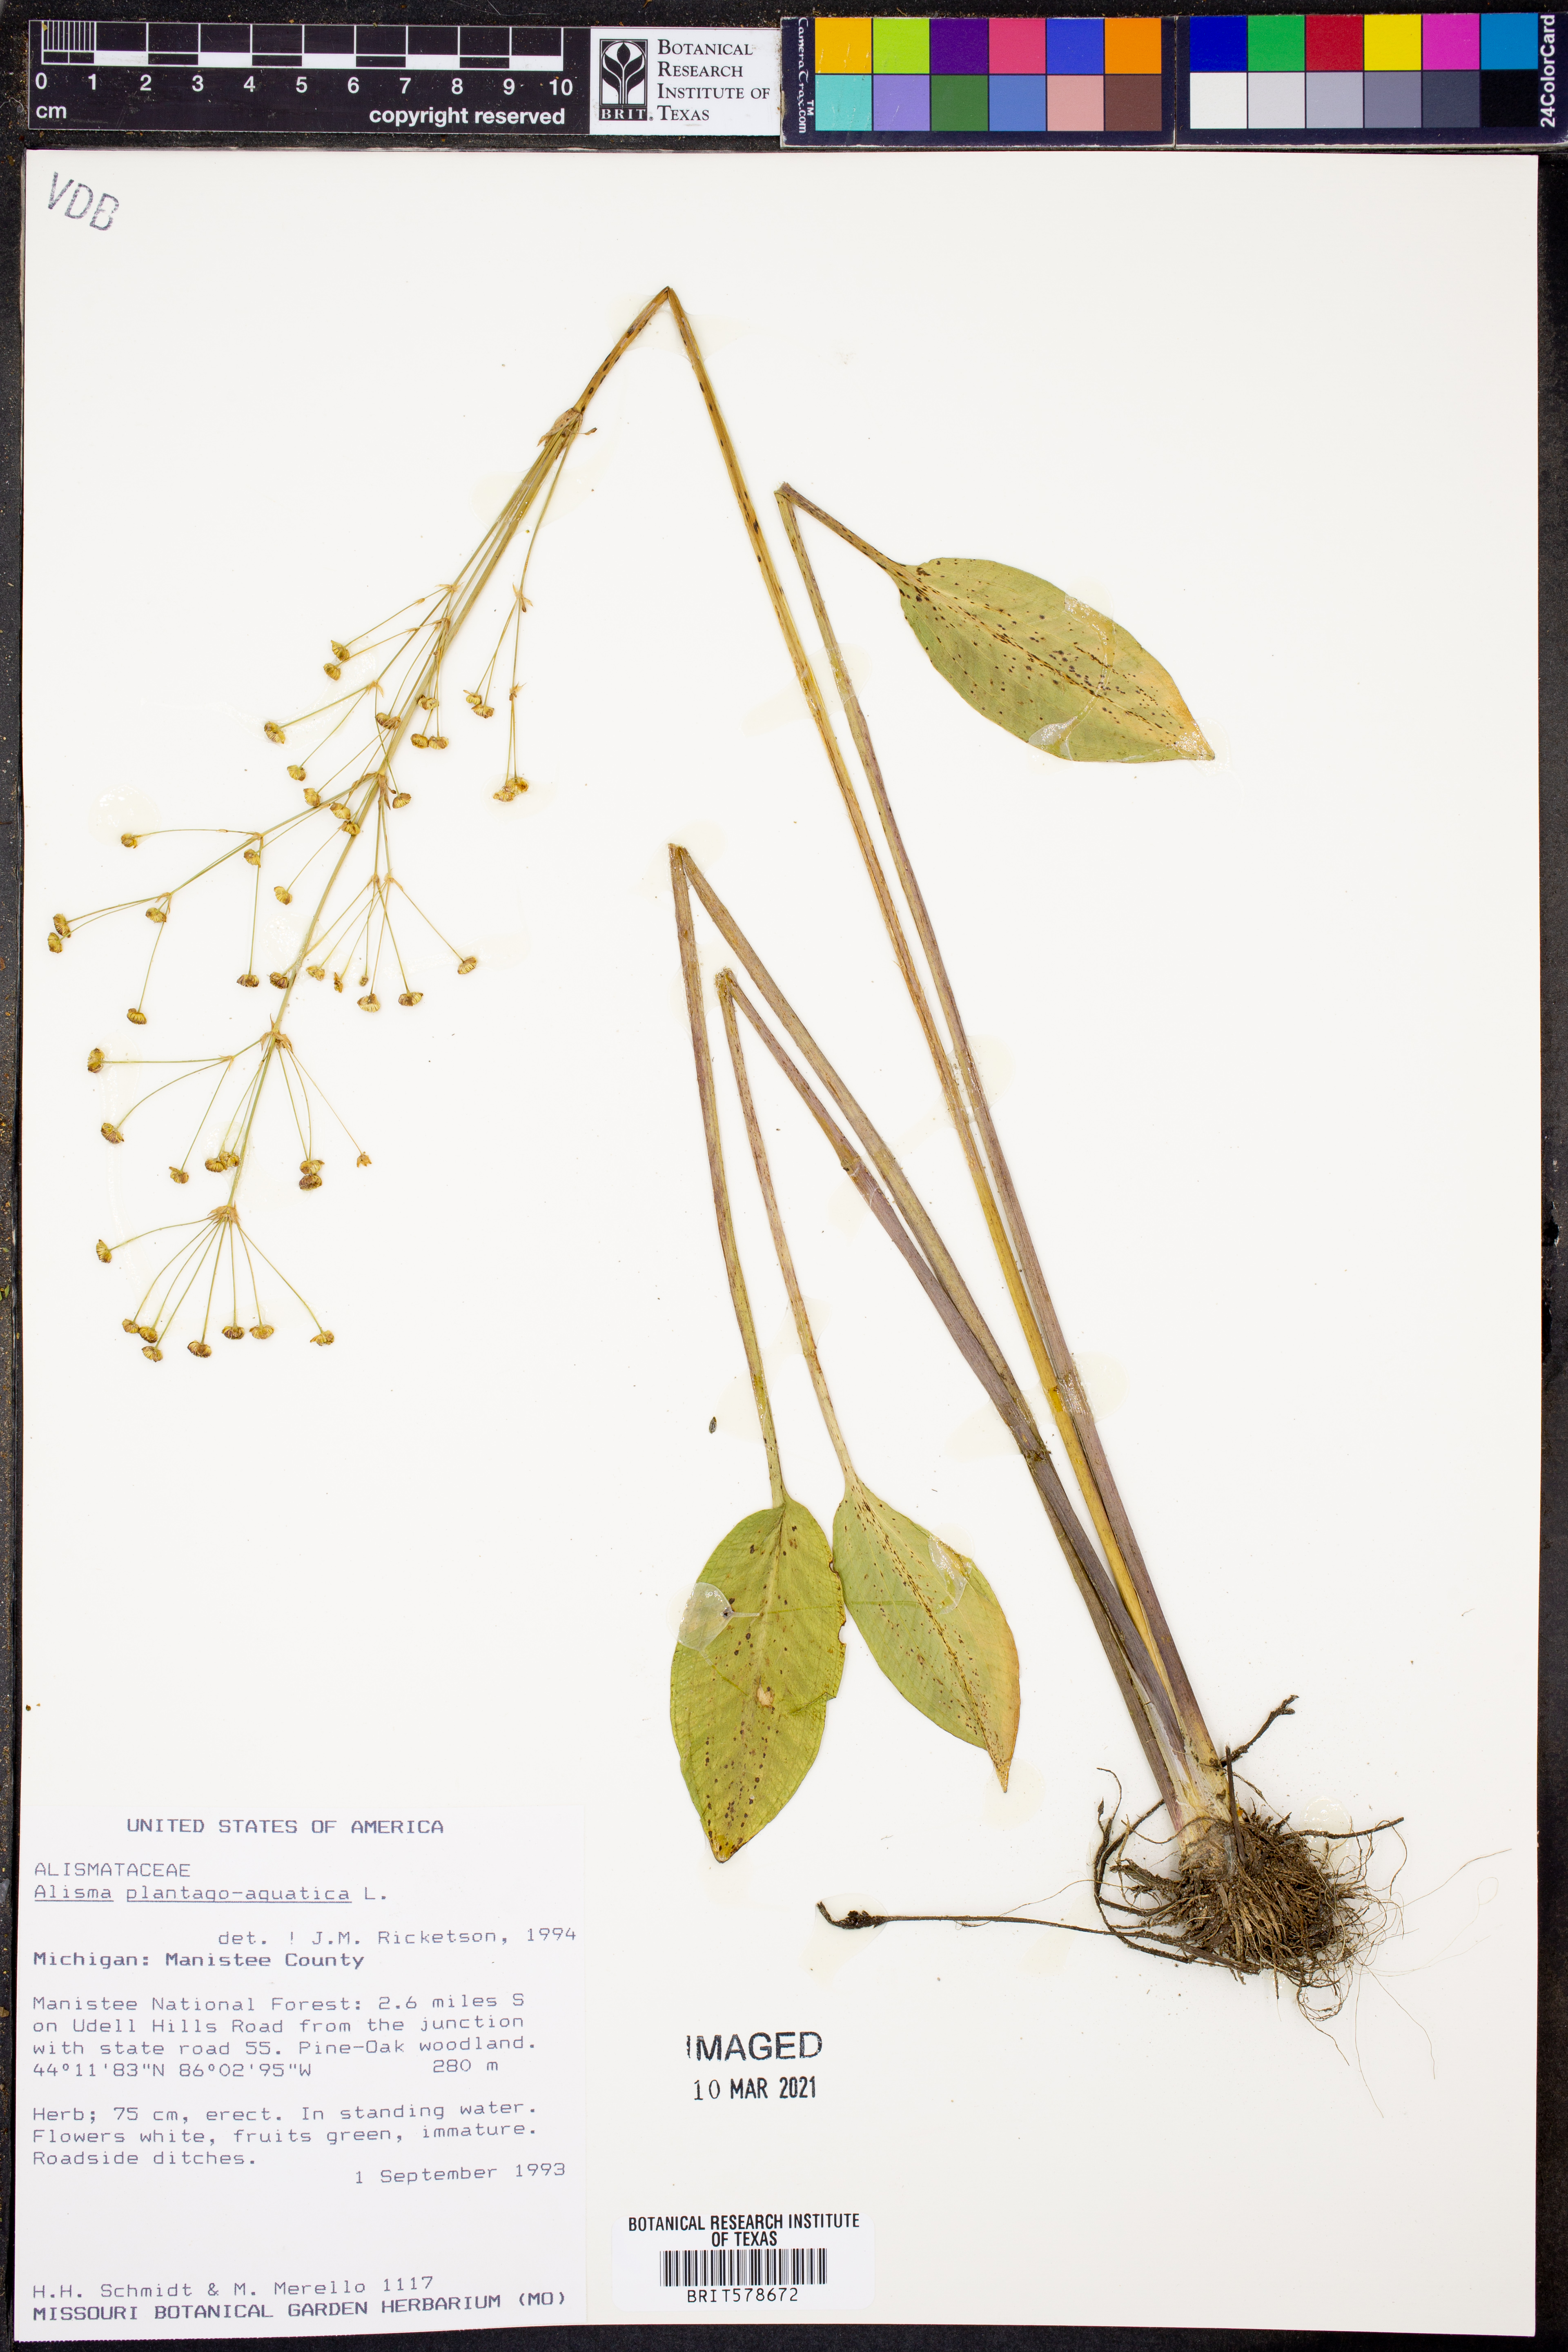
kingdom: Plantae
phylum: Tracheophyta
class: Liliopsida
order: Alismatales
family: Alismataceae
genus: Alisma
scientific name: Alisma plantago-aquatica
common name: Water-plantain
